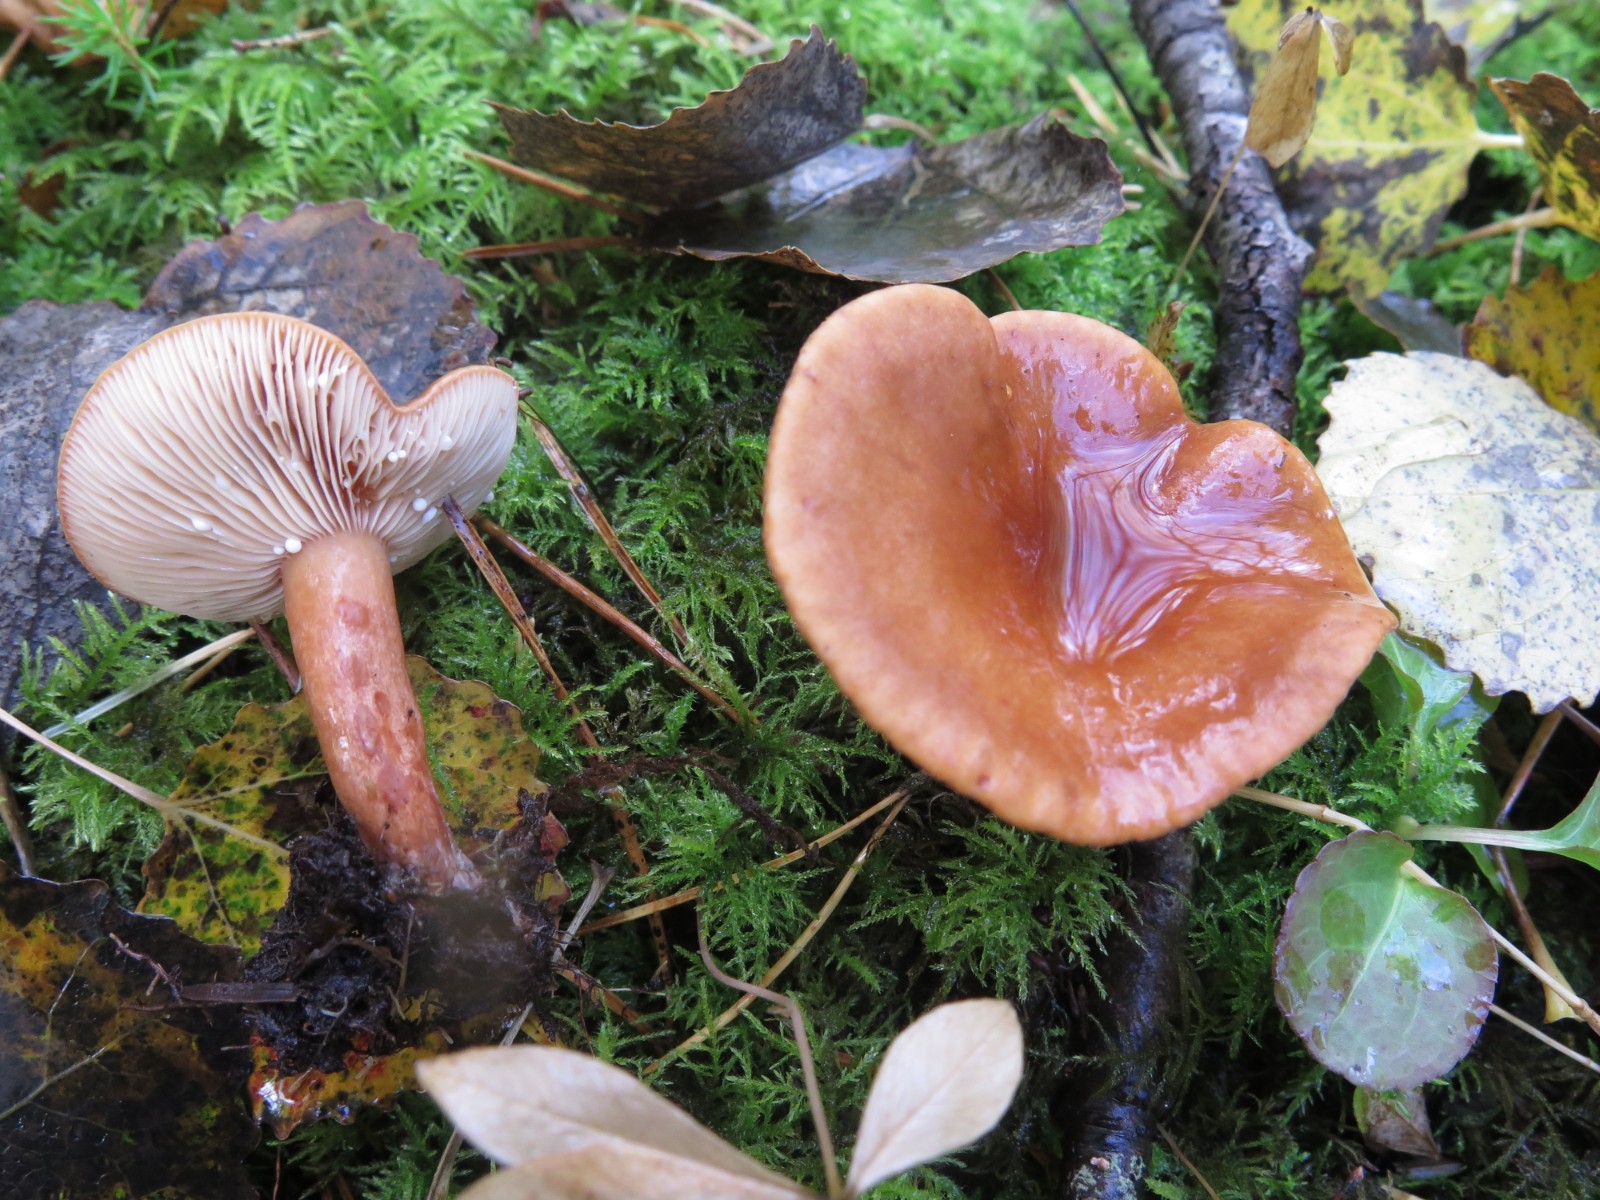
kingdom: Fungi
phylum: Basidiomycota
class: Agaricomycetes
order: Russulales
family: Russulaceae
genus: Lactarius
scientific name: Lactarius rufus
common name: rødbrun mælkehat
